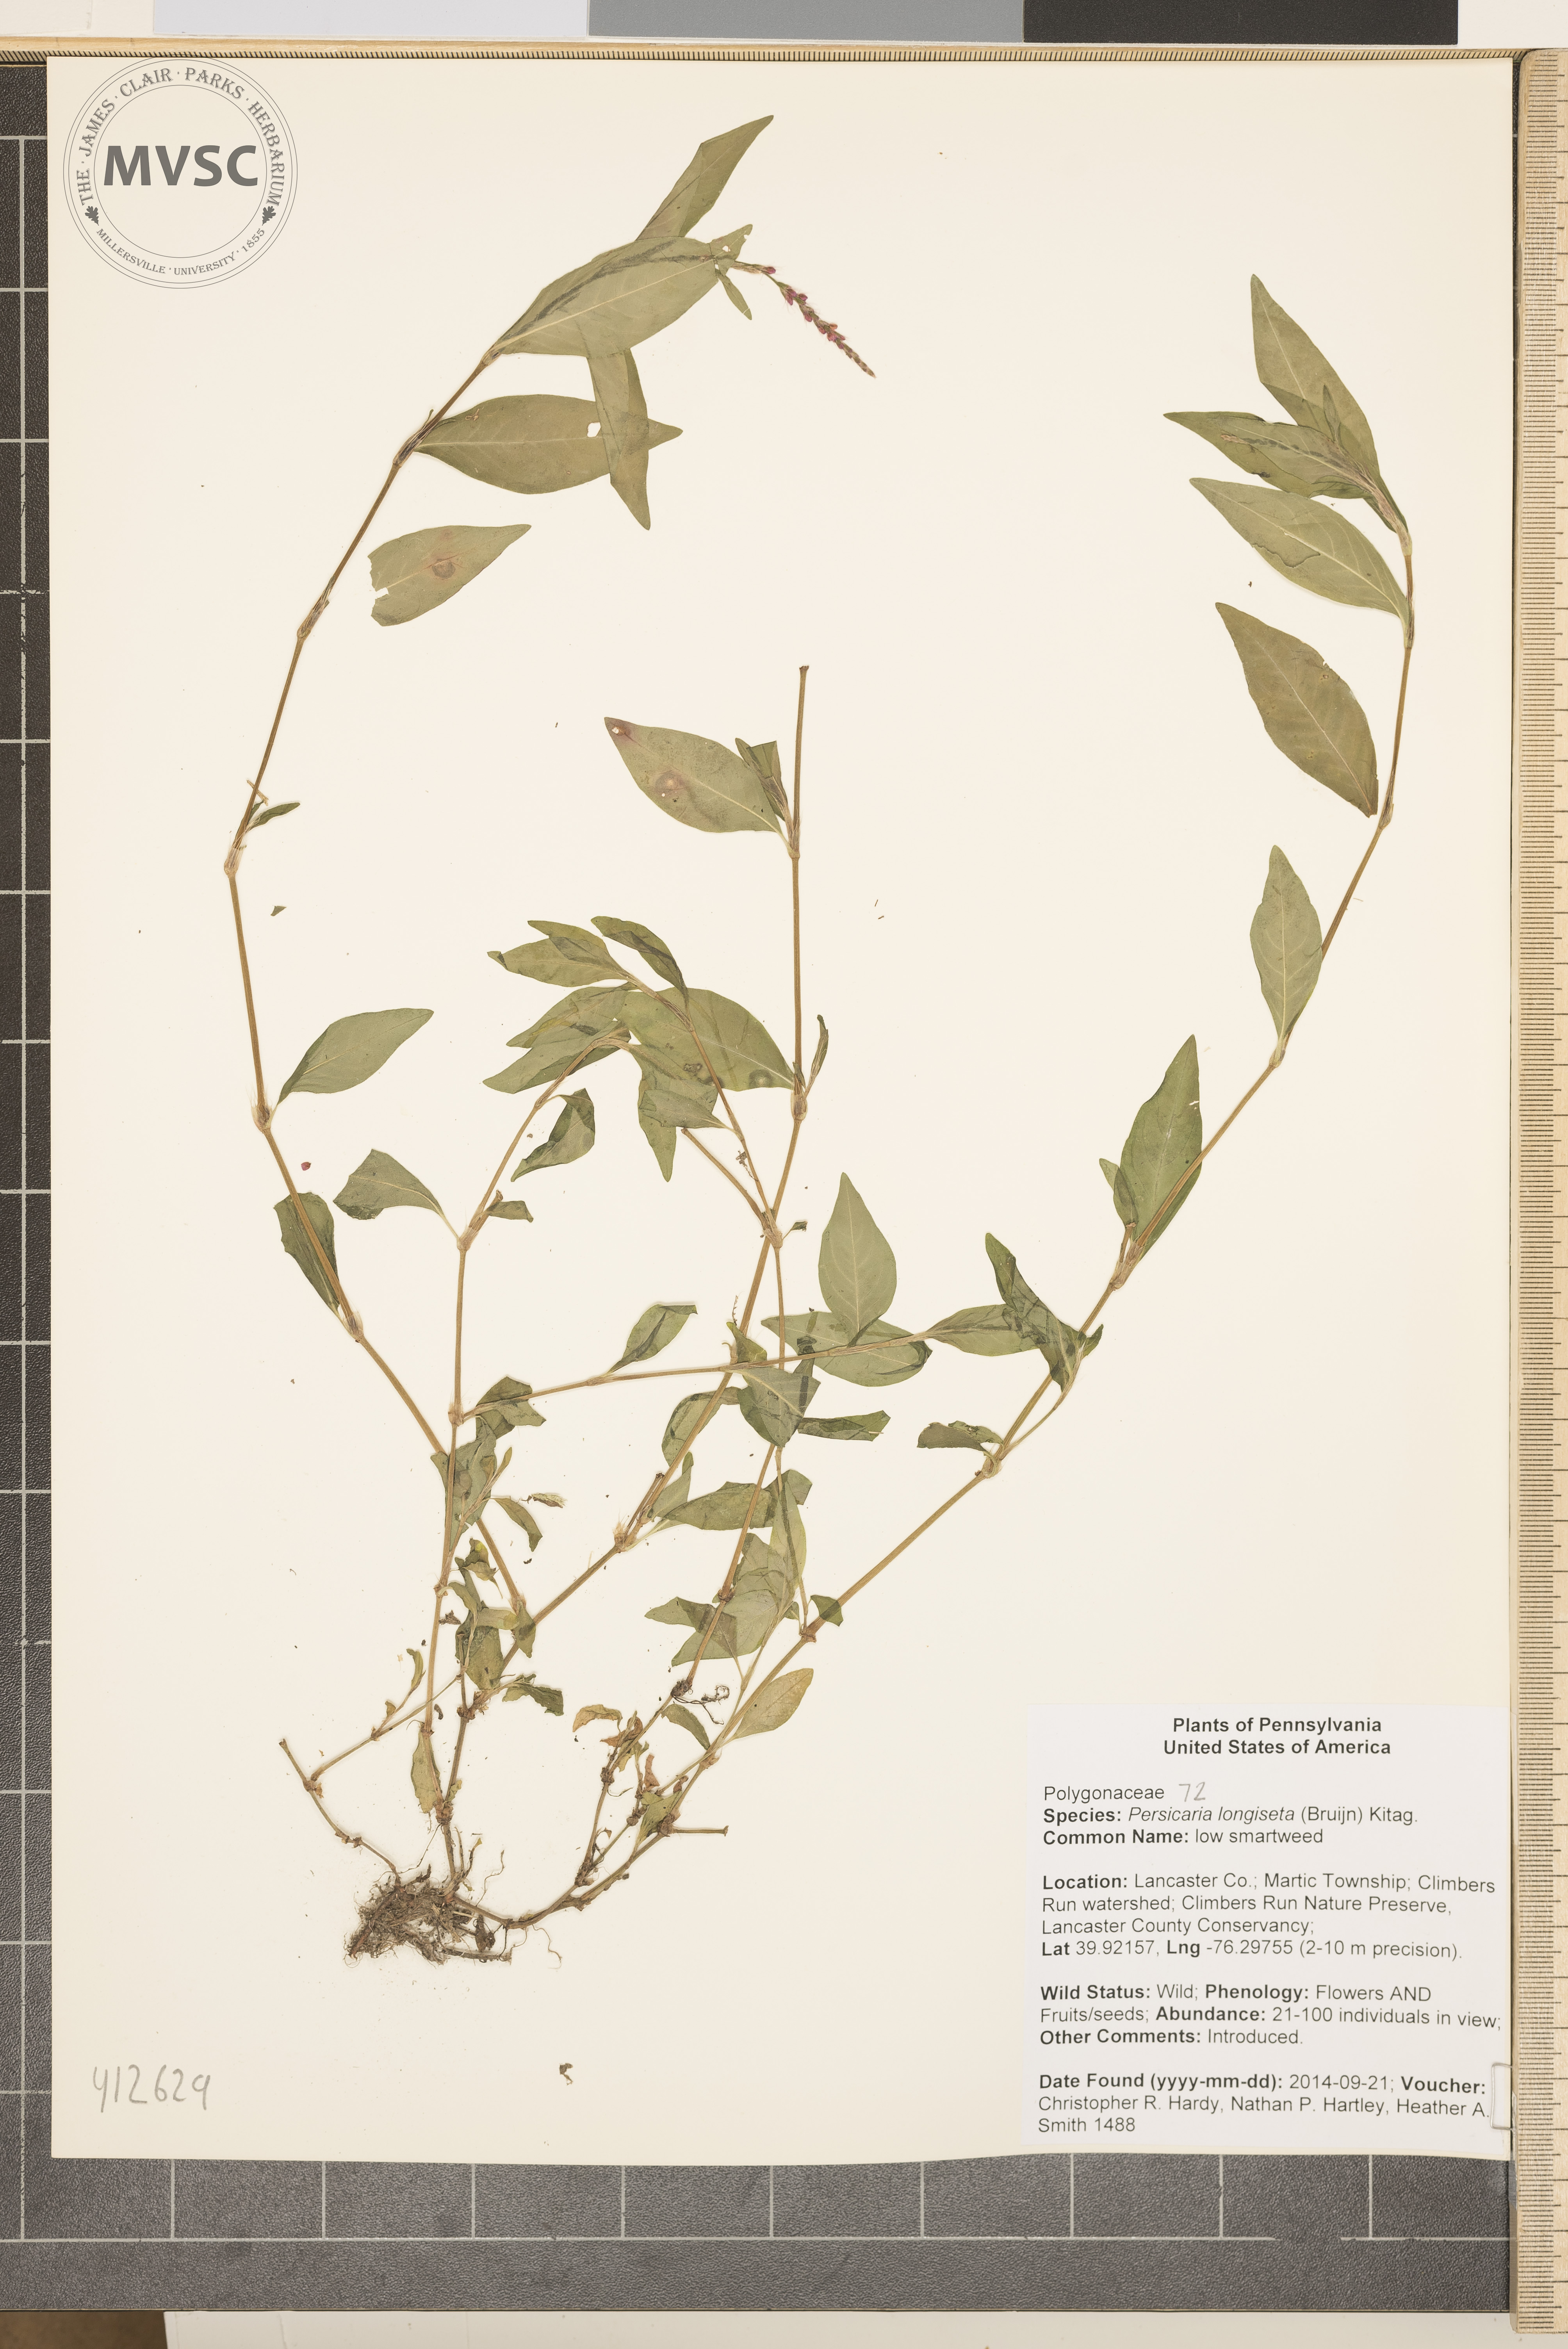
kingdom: Plantae
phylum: Tracheophyta
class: Magnoliopsida
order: Caryophyllales
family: Polygonaceae
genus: Persicaria
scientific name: Persicaria longiseta
